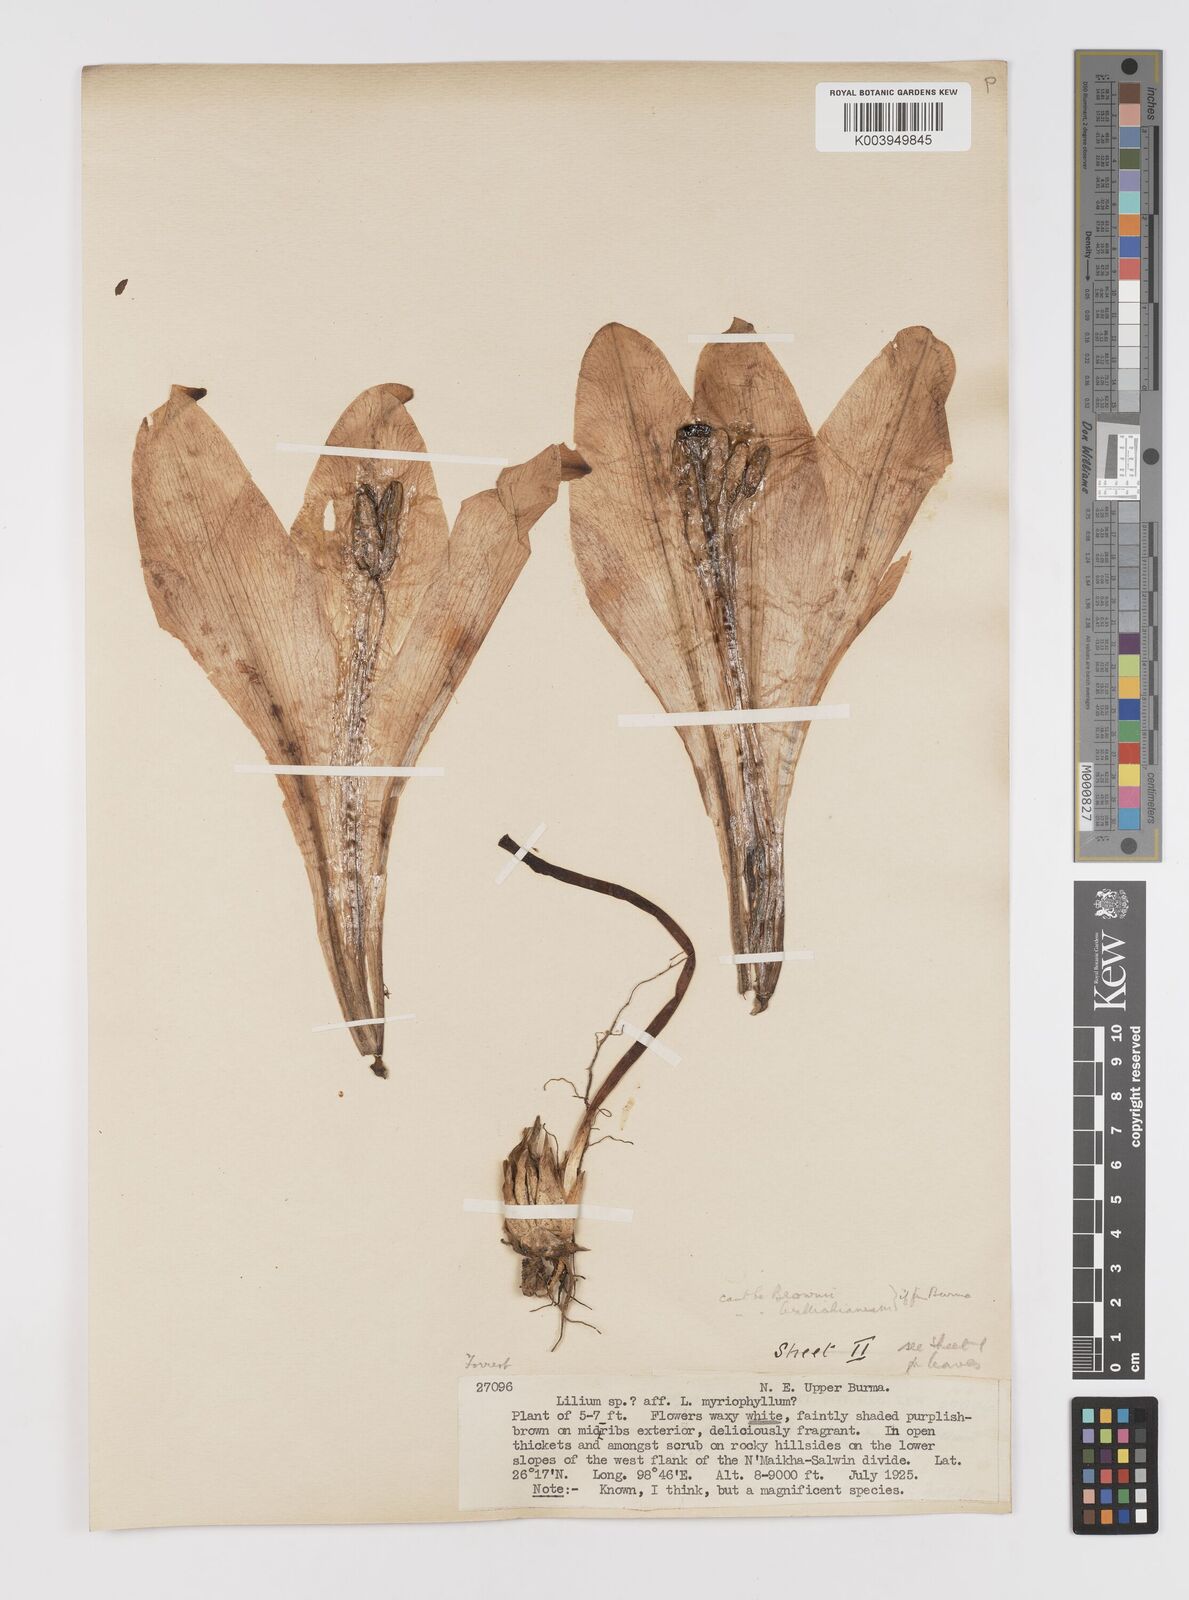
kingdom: Plantae
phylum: Tracheophyta
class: Liliopsida
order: Liliales
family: Liliaceae
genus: Lilium
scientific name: Lilium sulphureum
